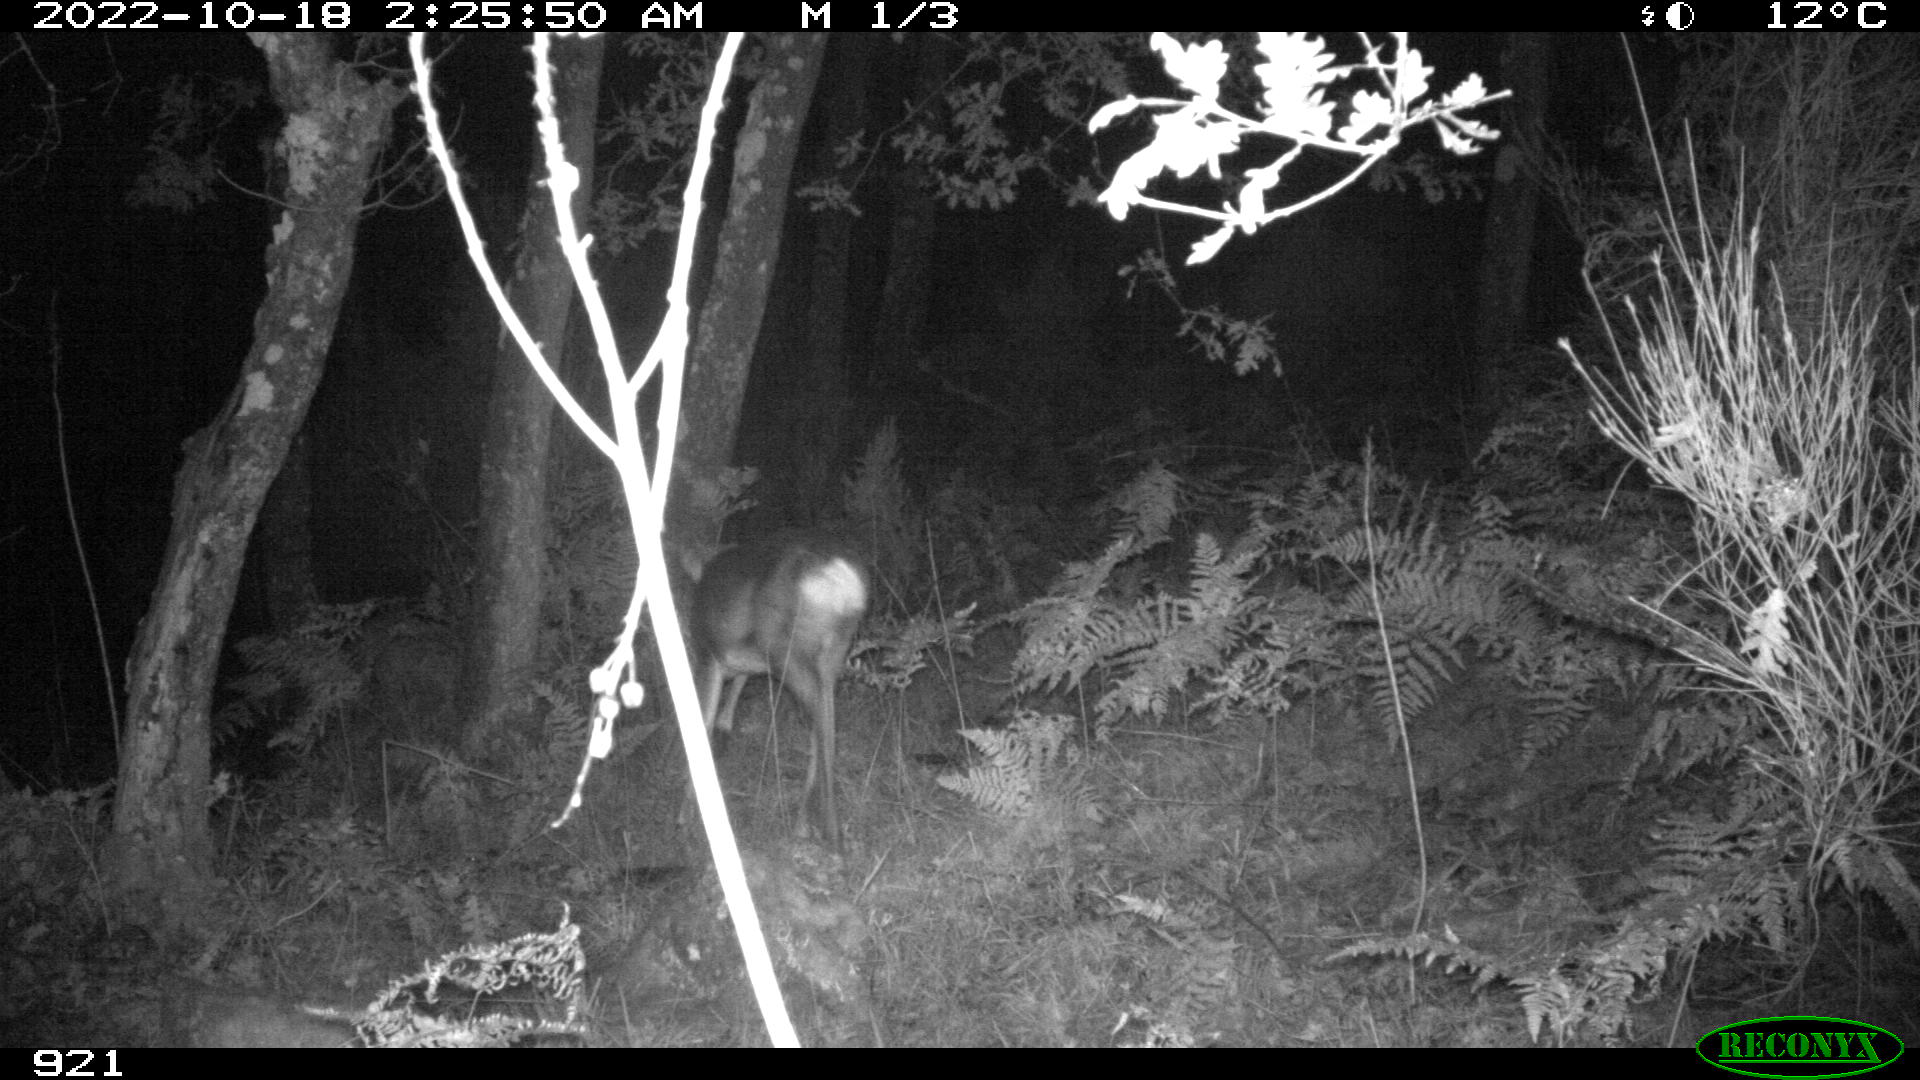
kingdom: Animalia
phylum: Chordata
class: Mammalia
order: Artiodactyla
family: Cervidae
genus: Capreolus
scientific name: Capreolus capreolus
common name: Western roe deer
